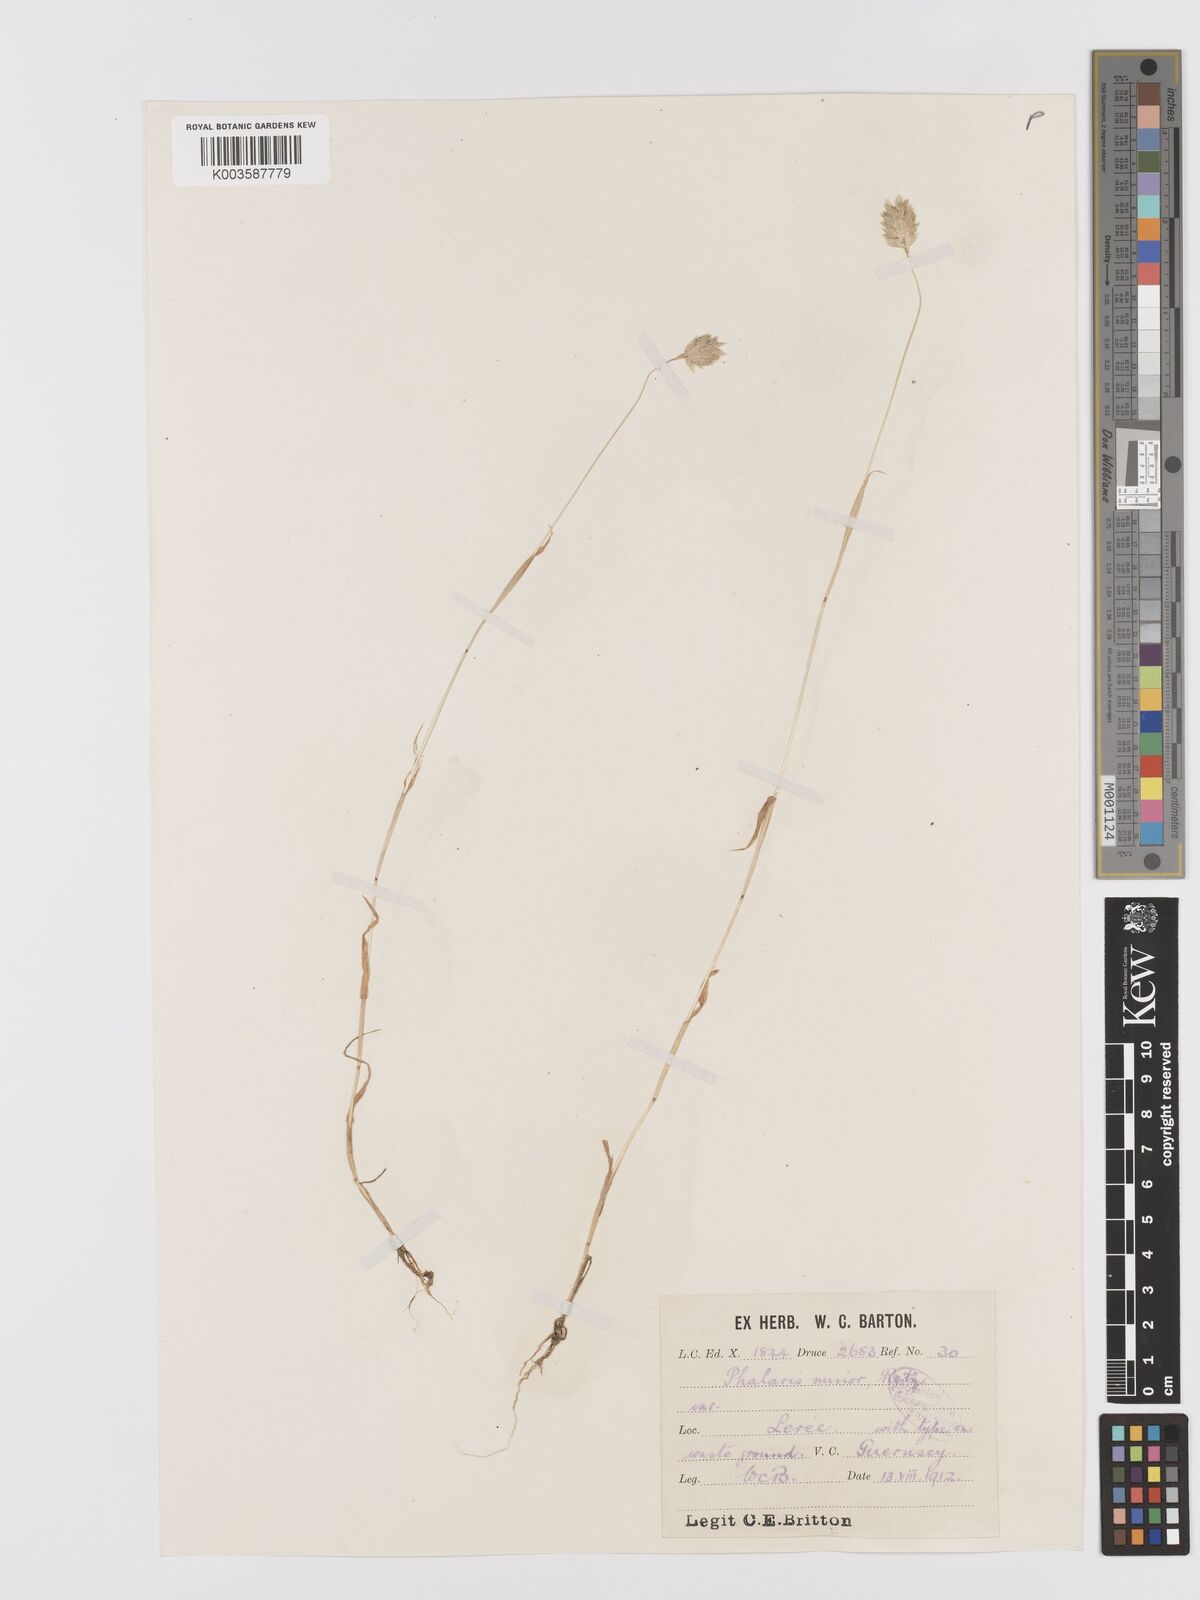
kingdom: Plantae
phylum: Tracheophyta
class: Liliopsida
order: Poales
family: Poaceae
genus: Phalaris
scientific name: Phalaris minor
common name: Littleseed canarygrass
